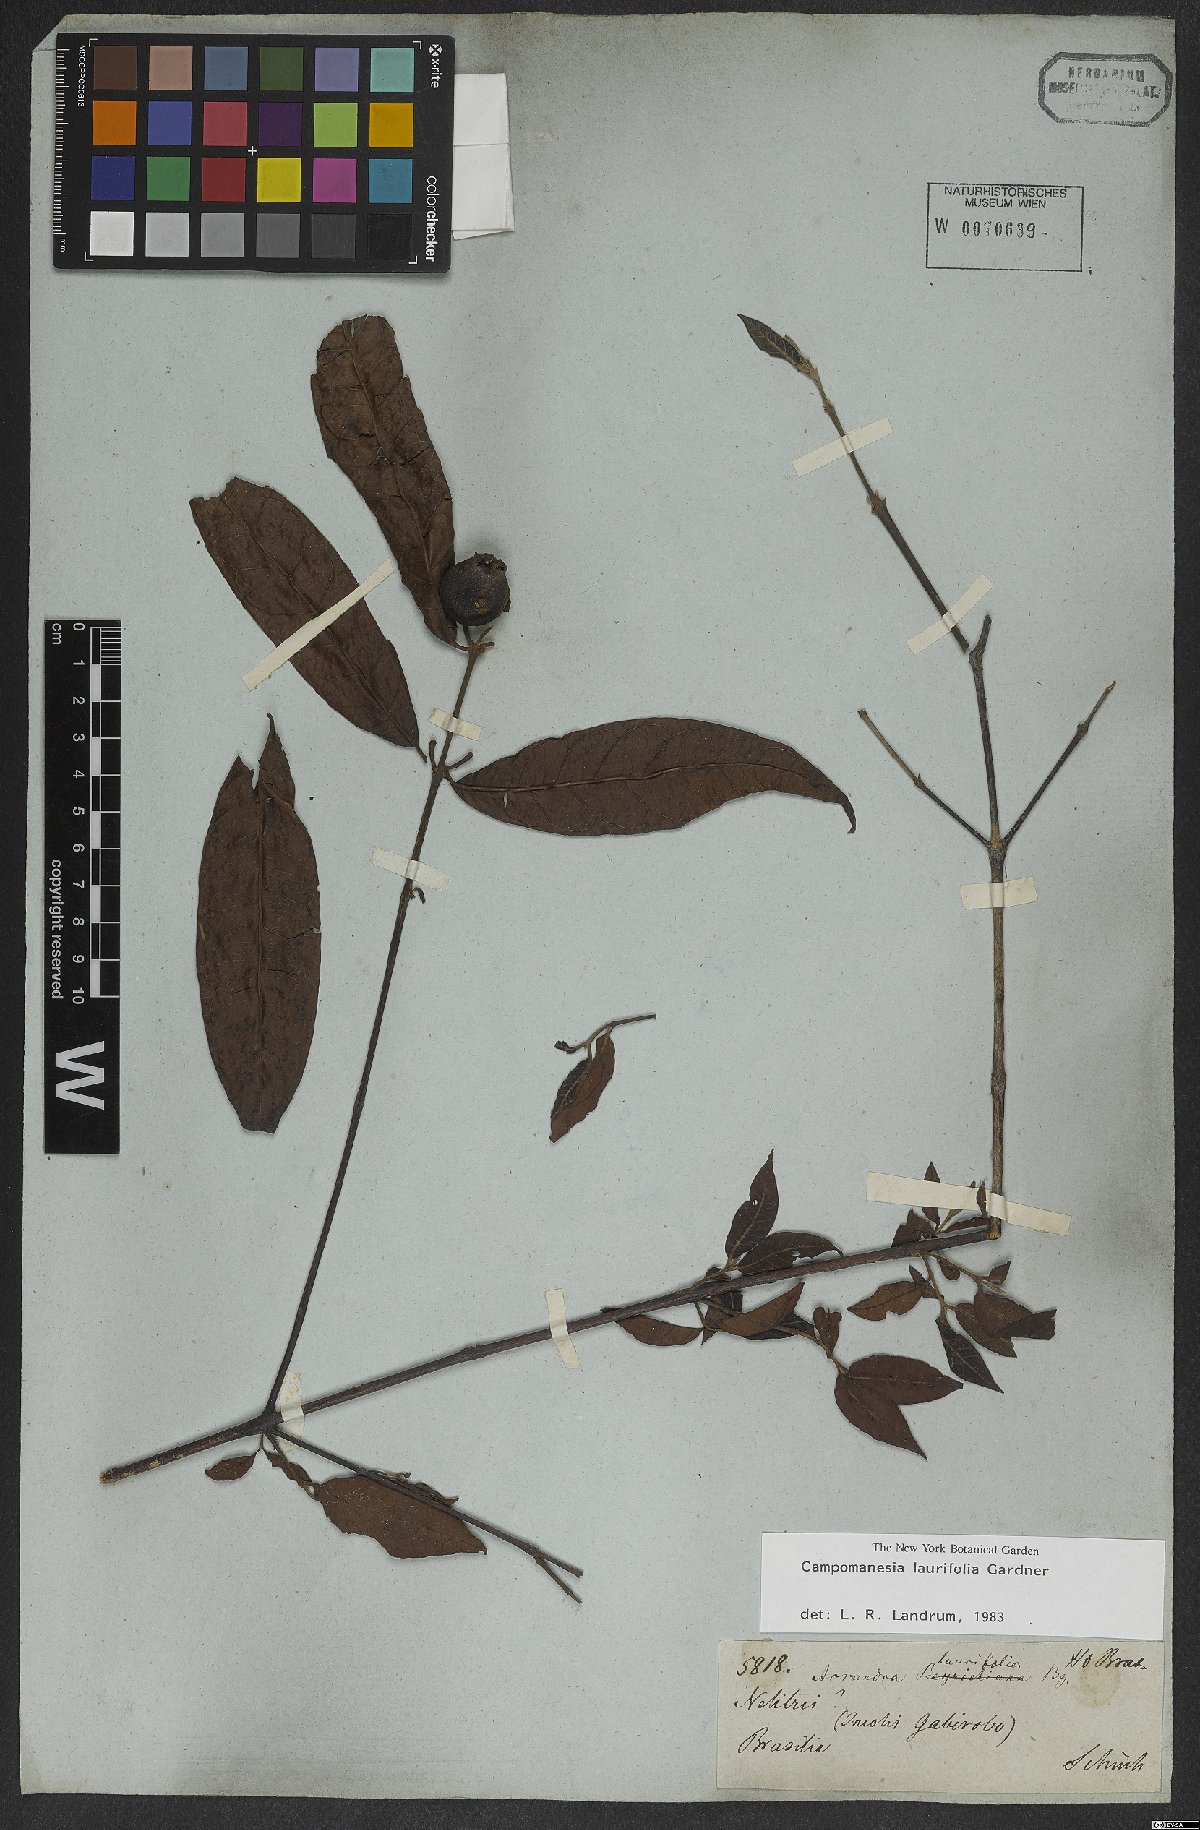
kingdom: Plantae
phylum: Tracheophyta
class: Magnoliopsida
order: Myrtales
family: Myrtaceae
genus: Campomanesia
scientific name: Campomanesia laurifolia
